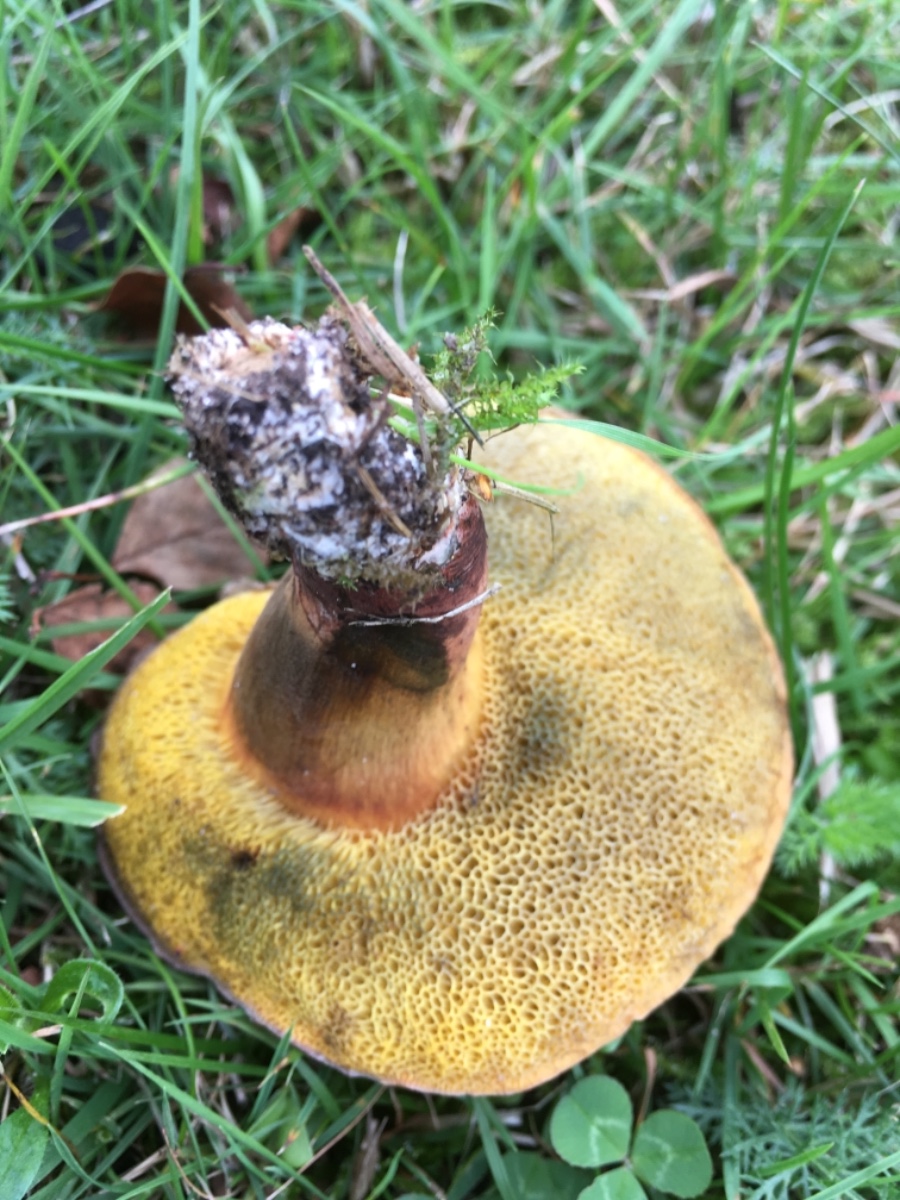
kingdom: Fungi
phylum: Basidiomycota
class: Agaricomycetes
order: Boletales
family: Boletaceae
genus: Cyanoboletus
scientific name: Cyanoboletus pulverulentus
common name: sortblånende rørhat
